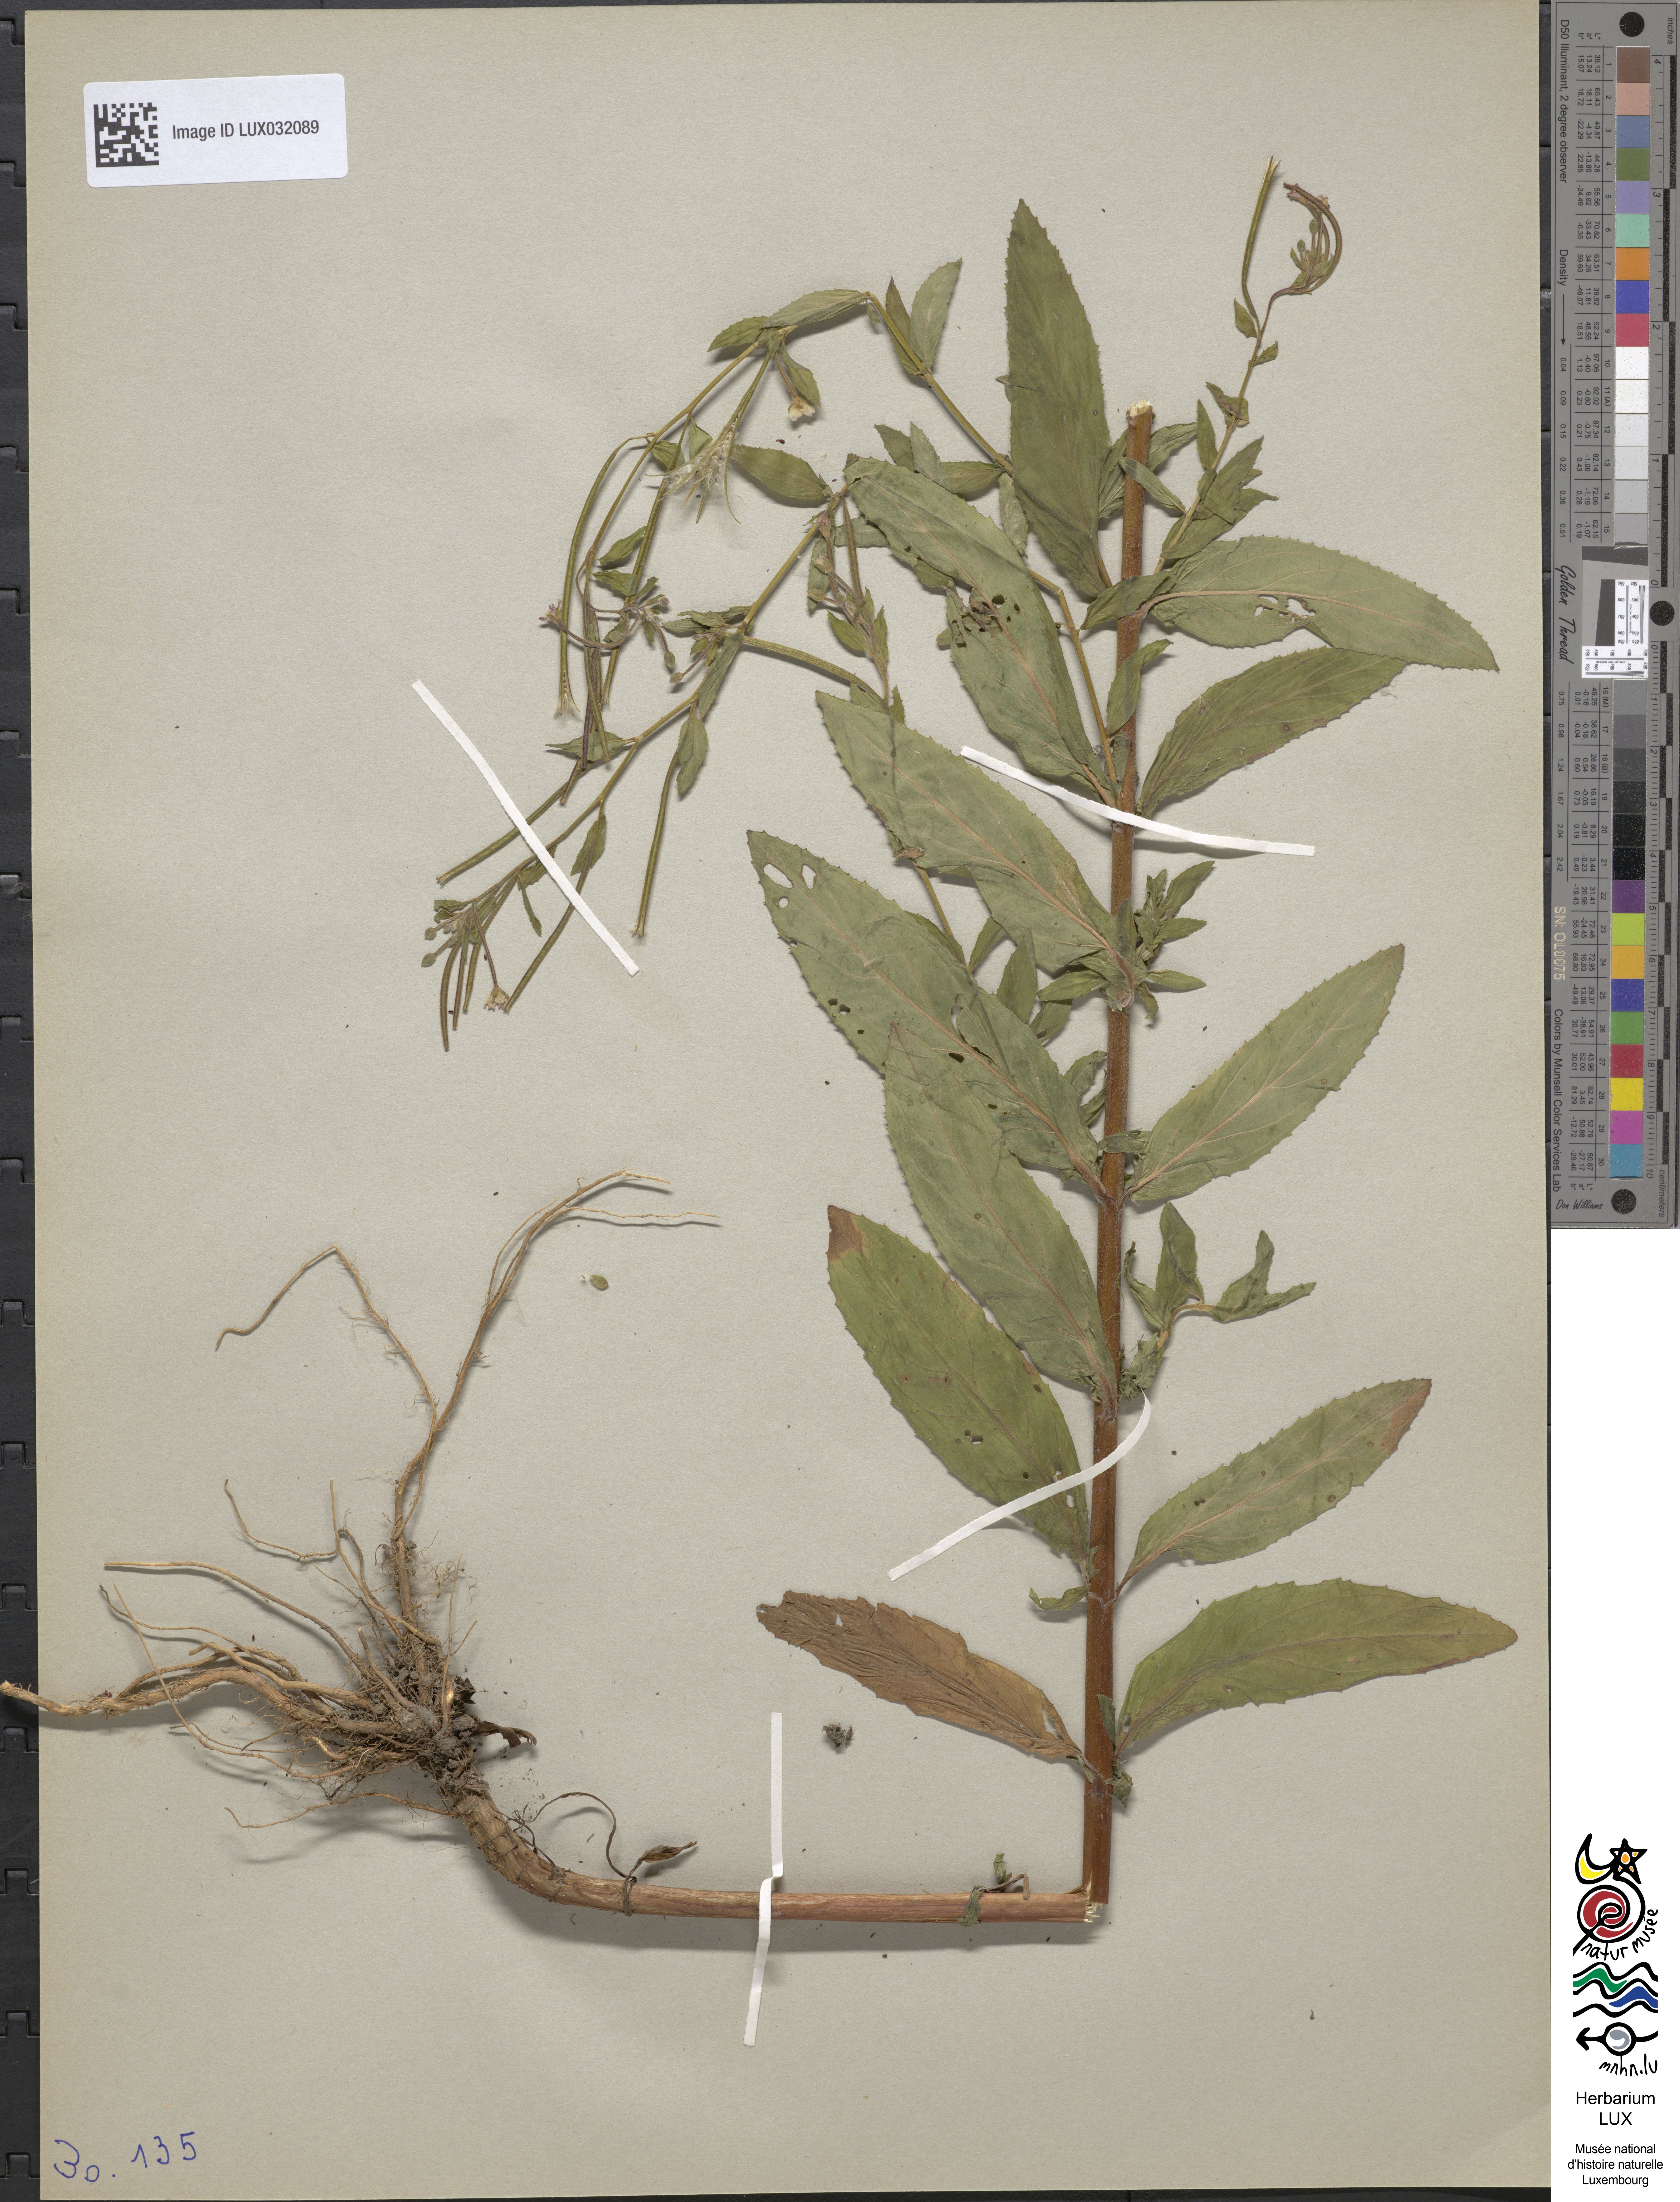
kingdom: Animalia
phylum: Arthropoda
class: Insecta
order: Hymenoptera
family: Megachilidae
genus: Epilobium
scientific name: Epilobium
